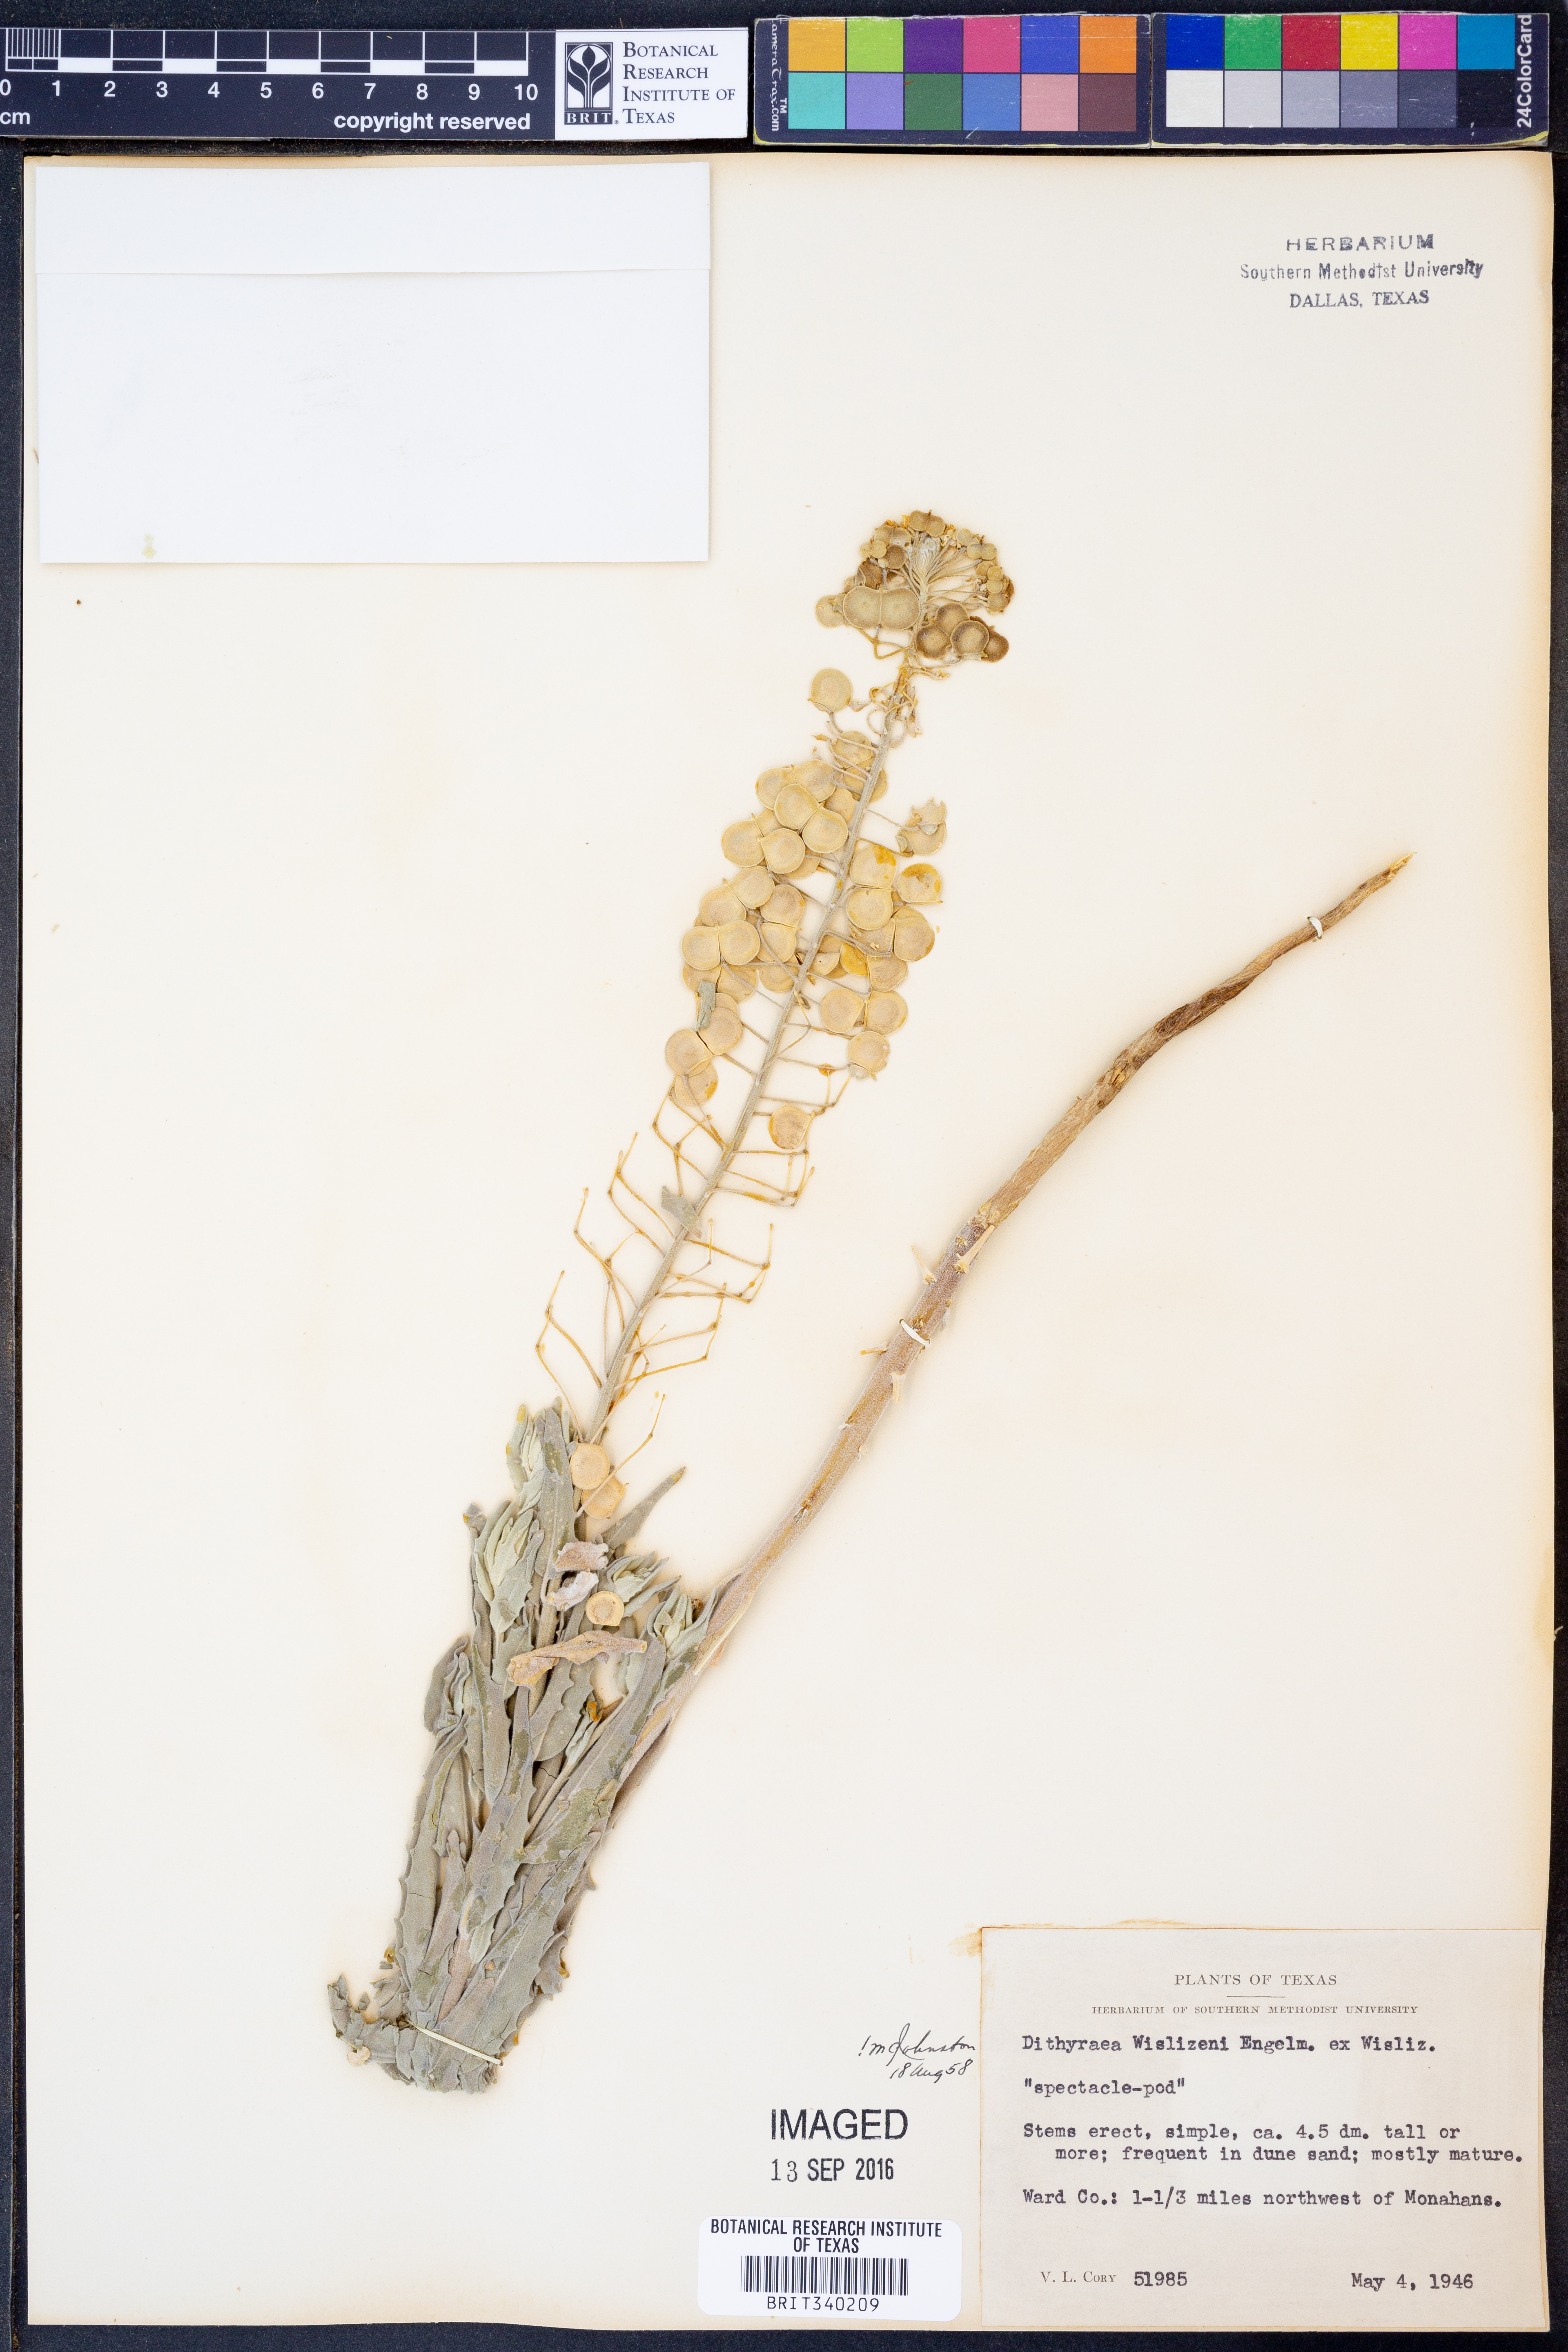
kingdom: Plantae
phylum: Tracheophyta
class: Magnoliopsida
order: Brassicales
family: Brassicaceae
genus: Dimorphocarpa
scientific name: Dimorphocarpa wislizenii
